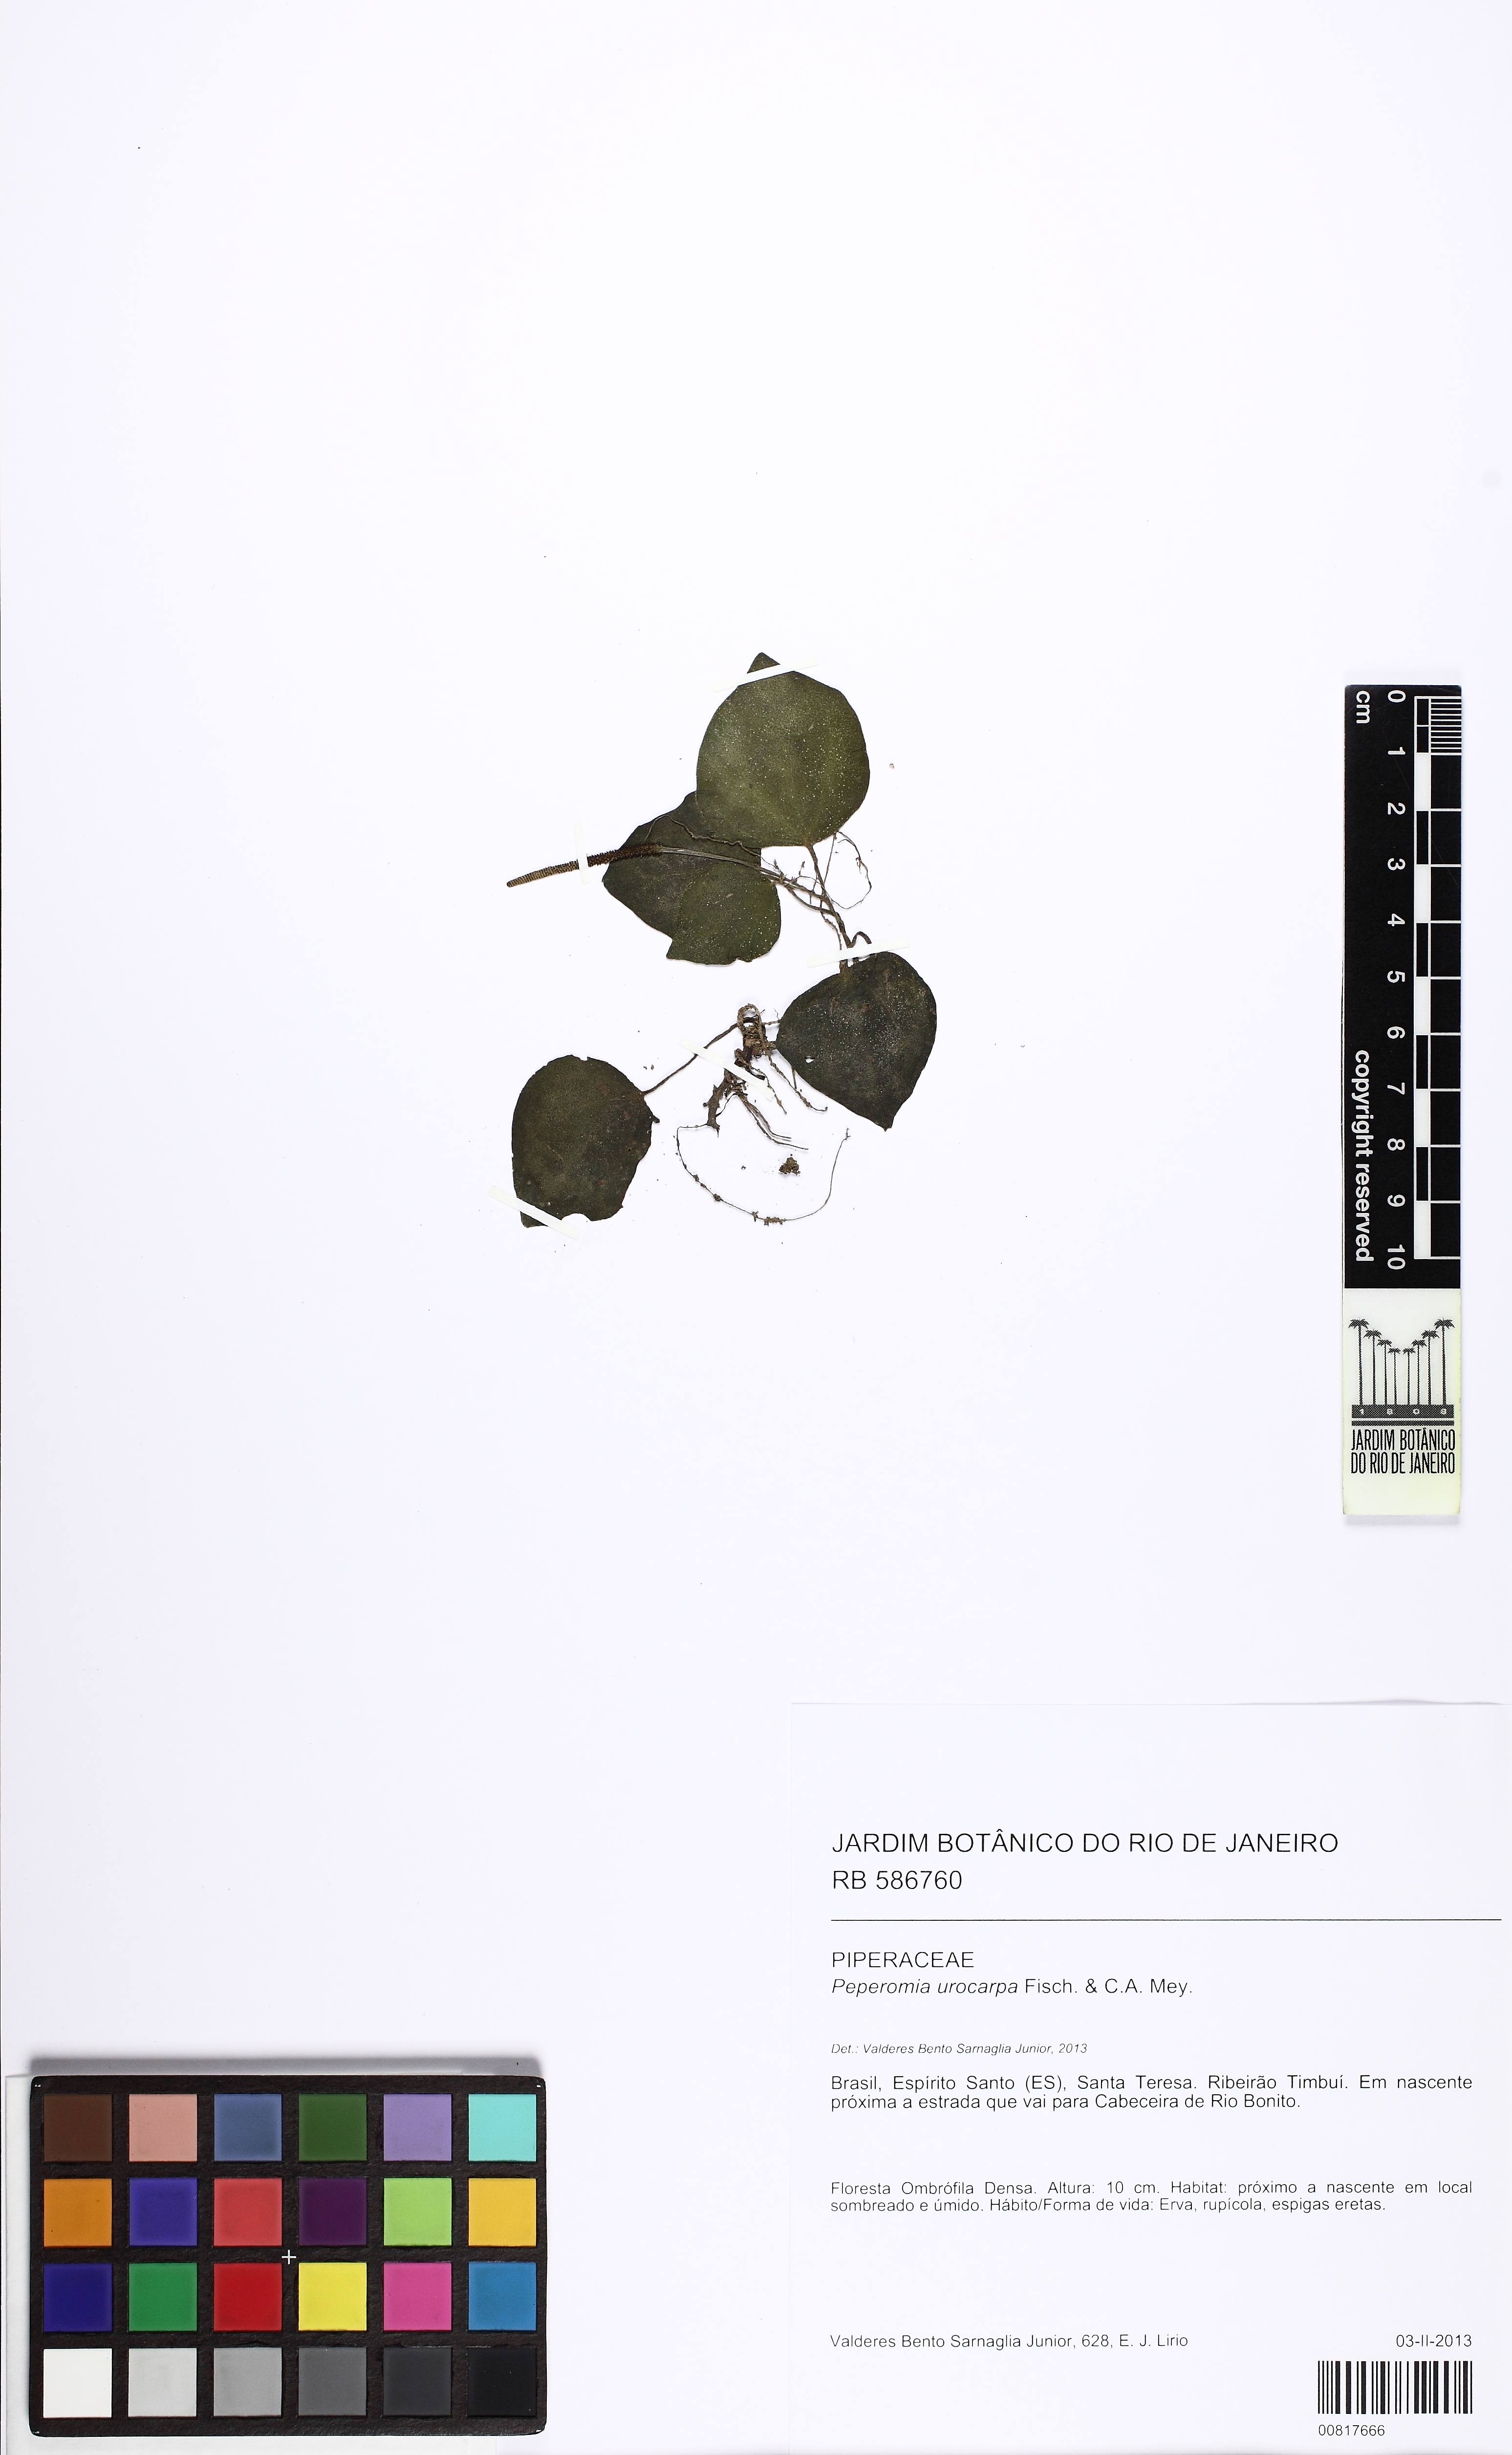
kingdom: Plantae
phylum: Tracheophyta
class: Magnoliopsida
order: Piperales
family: Piperaceae
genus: Peperomia
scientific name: Peperomia urocarpa
